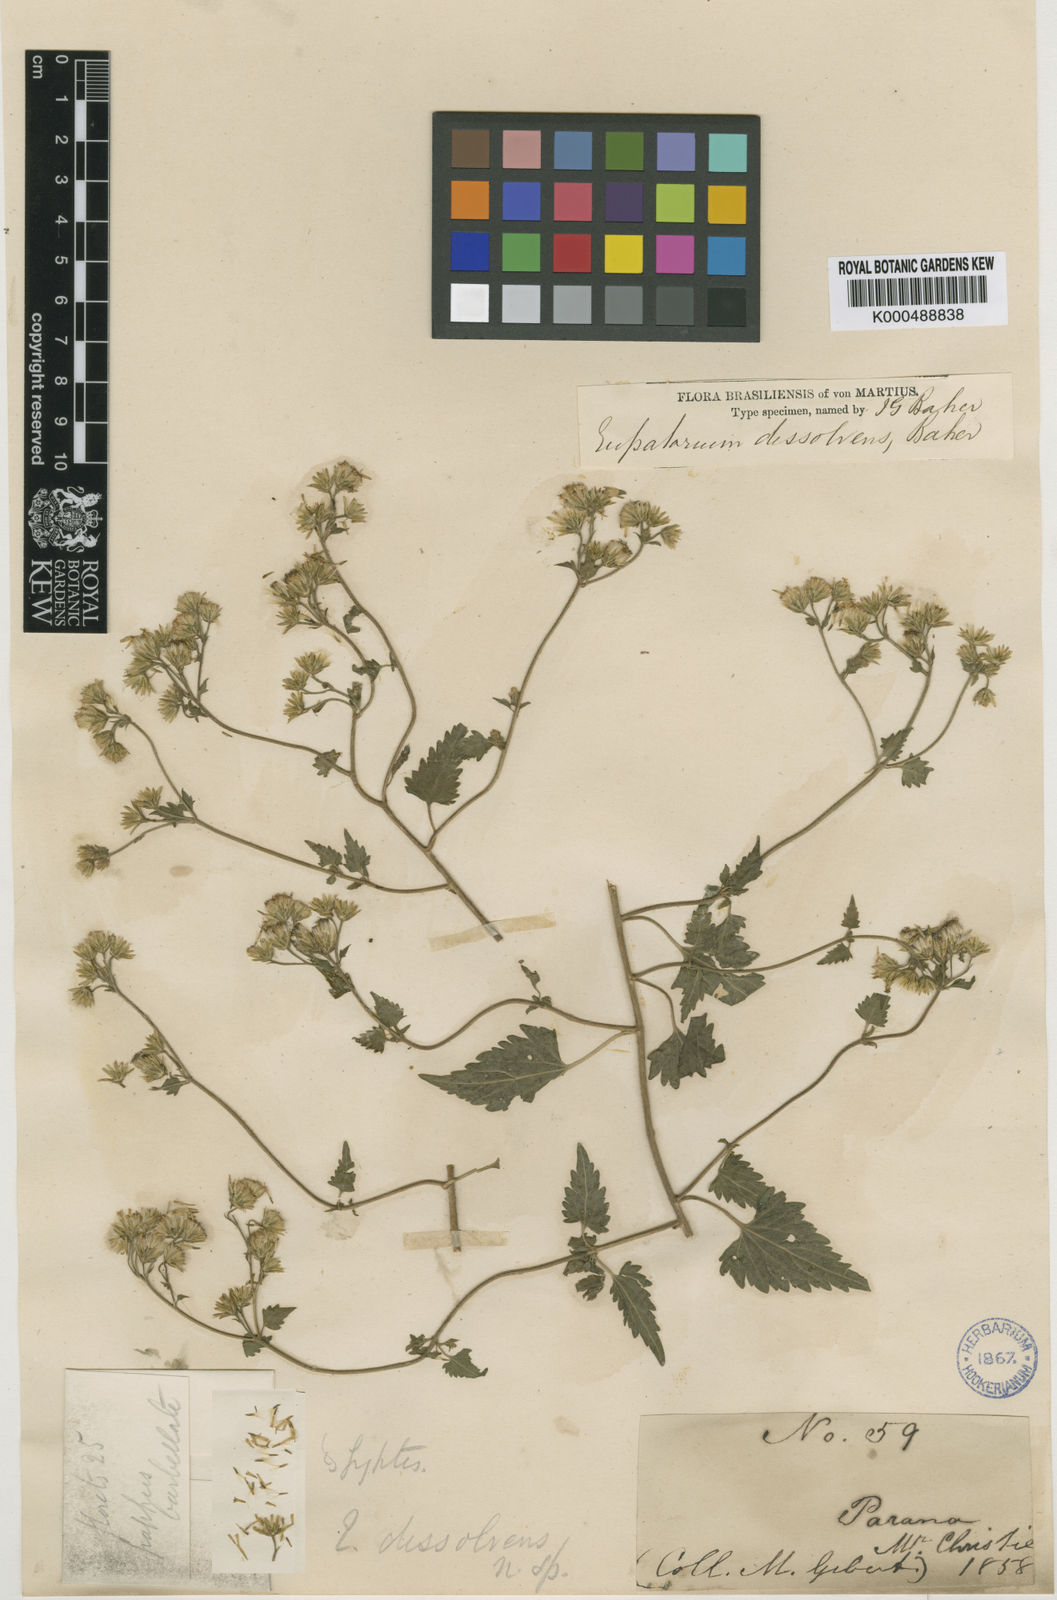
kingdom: Plantae
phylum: Tracheophyta
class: Magnoliopsida
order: Asterales
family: Asteraceae
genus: Fleischmannia
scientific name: Fleischmannia dissolvens
